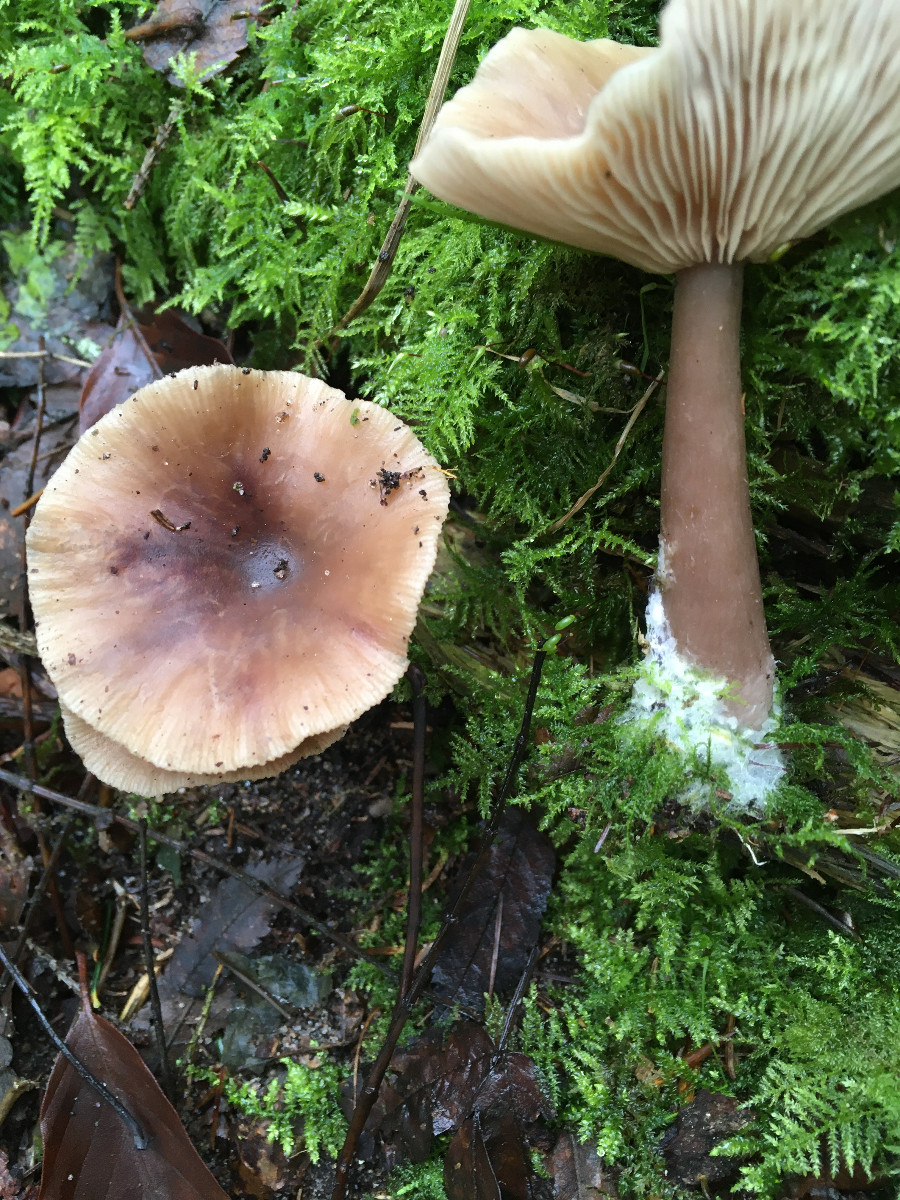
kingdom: Fungi
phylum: Basidiomycota
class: Agaricomycetes
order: Agaricales
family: Omphalotaceae
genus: Rhodocollybia
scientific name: Rhodocollybia asema
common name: horngrå fladhat
